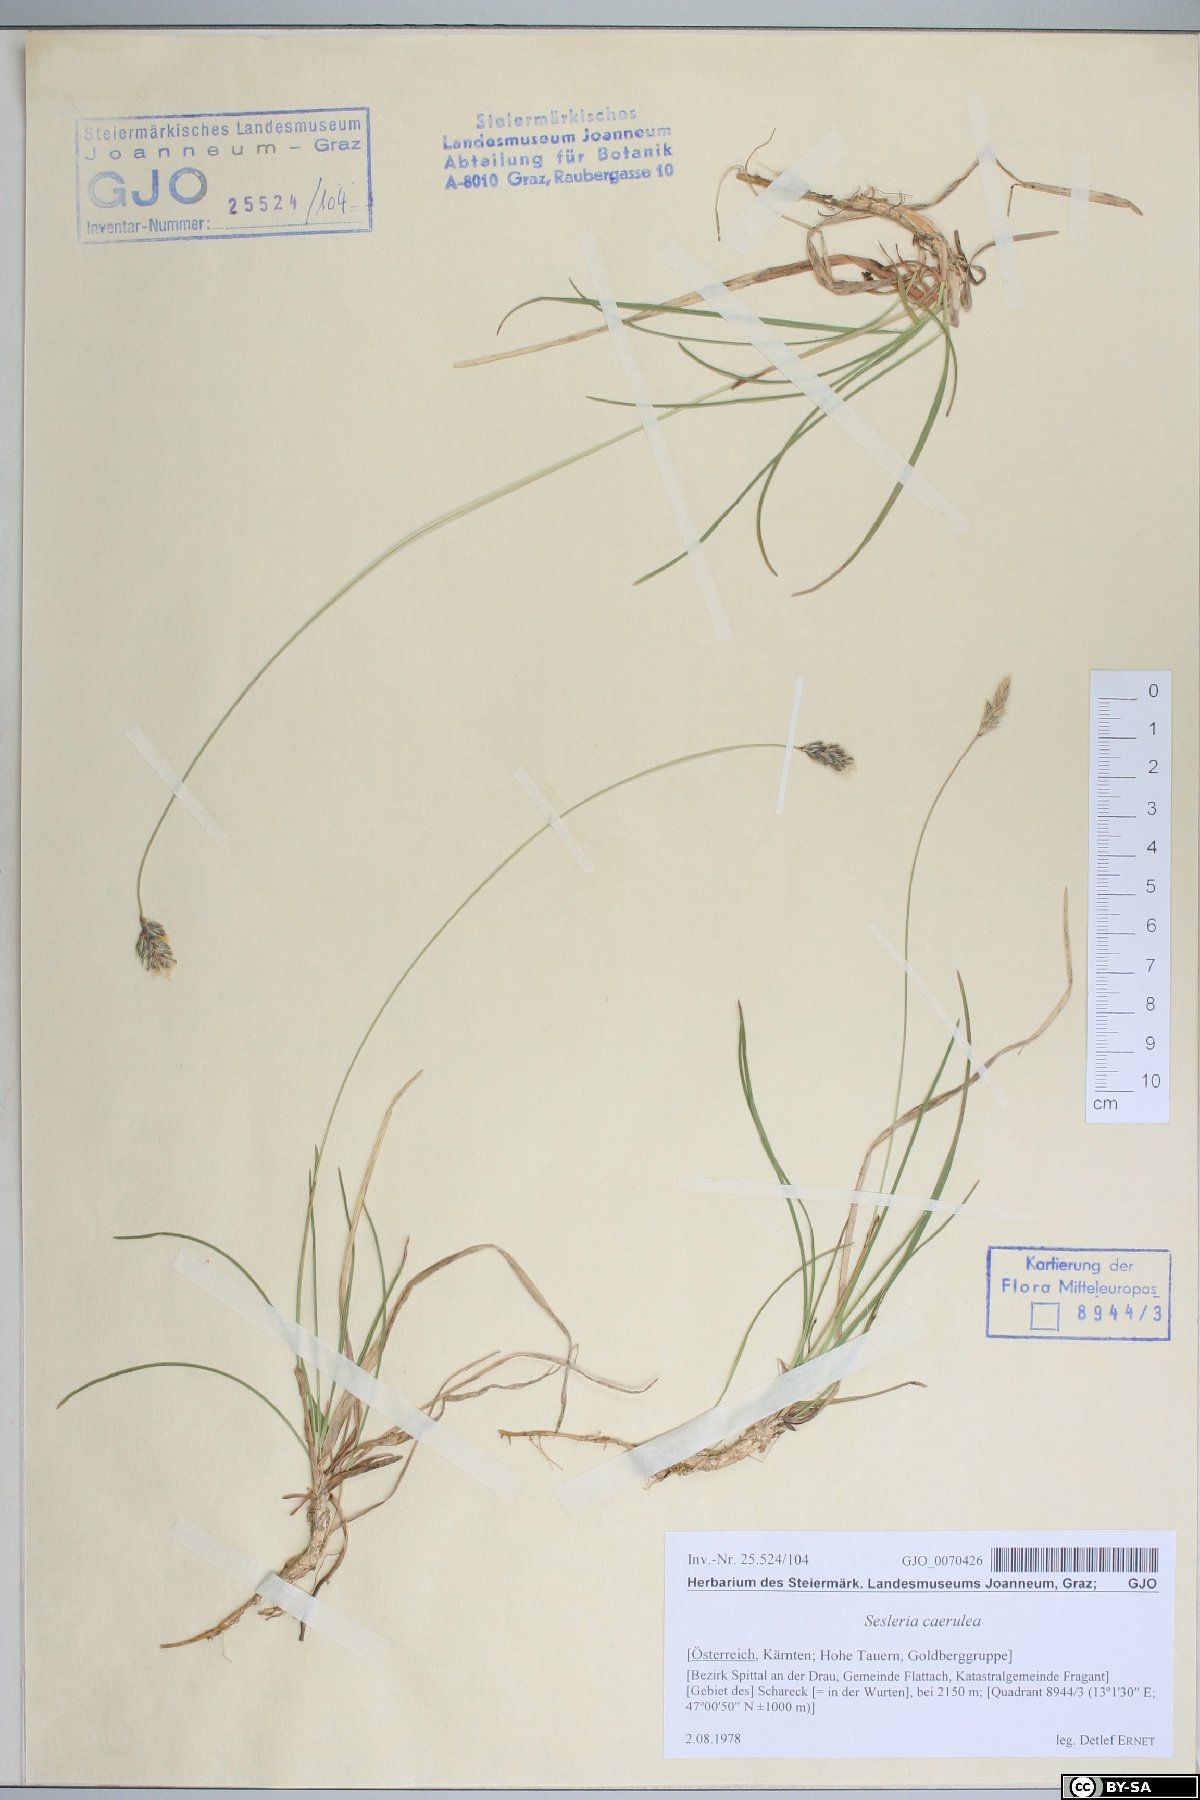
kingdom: Plantae
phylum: Tracheophyta
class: Liliopsida
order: Poales
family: Poaceae
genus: Sesleria
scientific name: Sesleria caerulea
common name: Blue moor-grass
